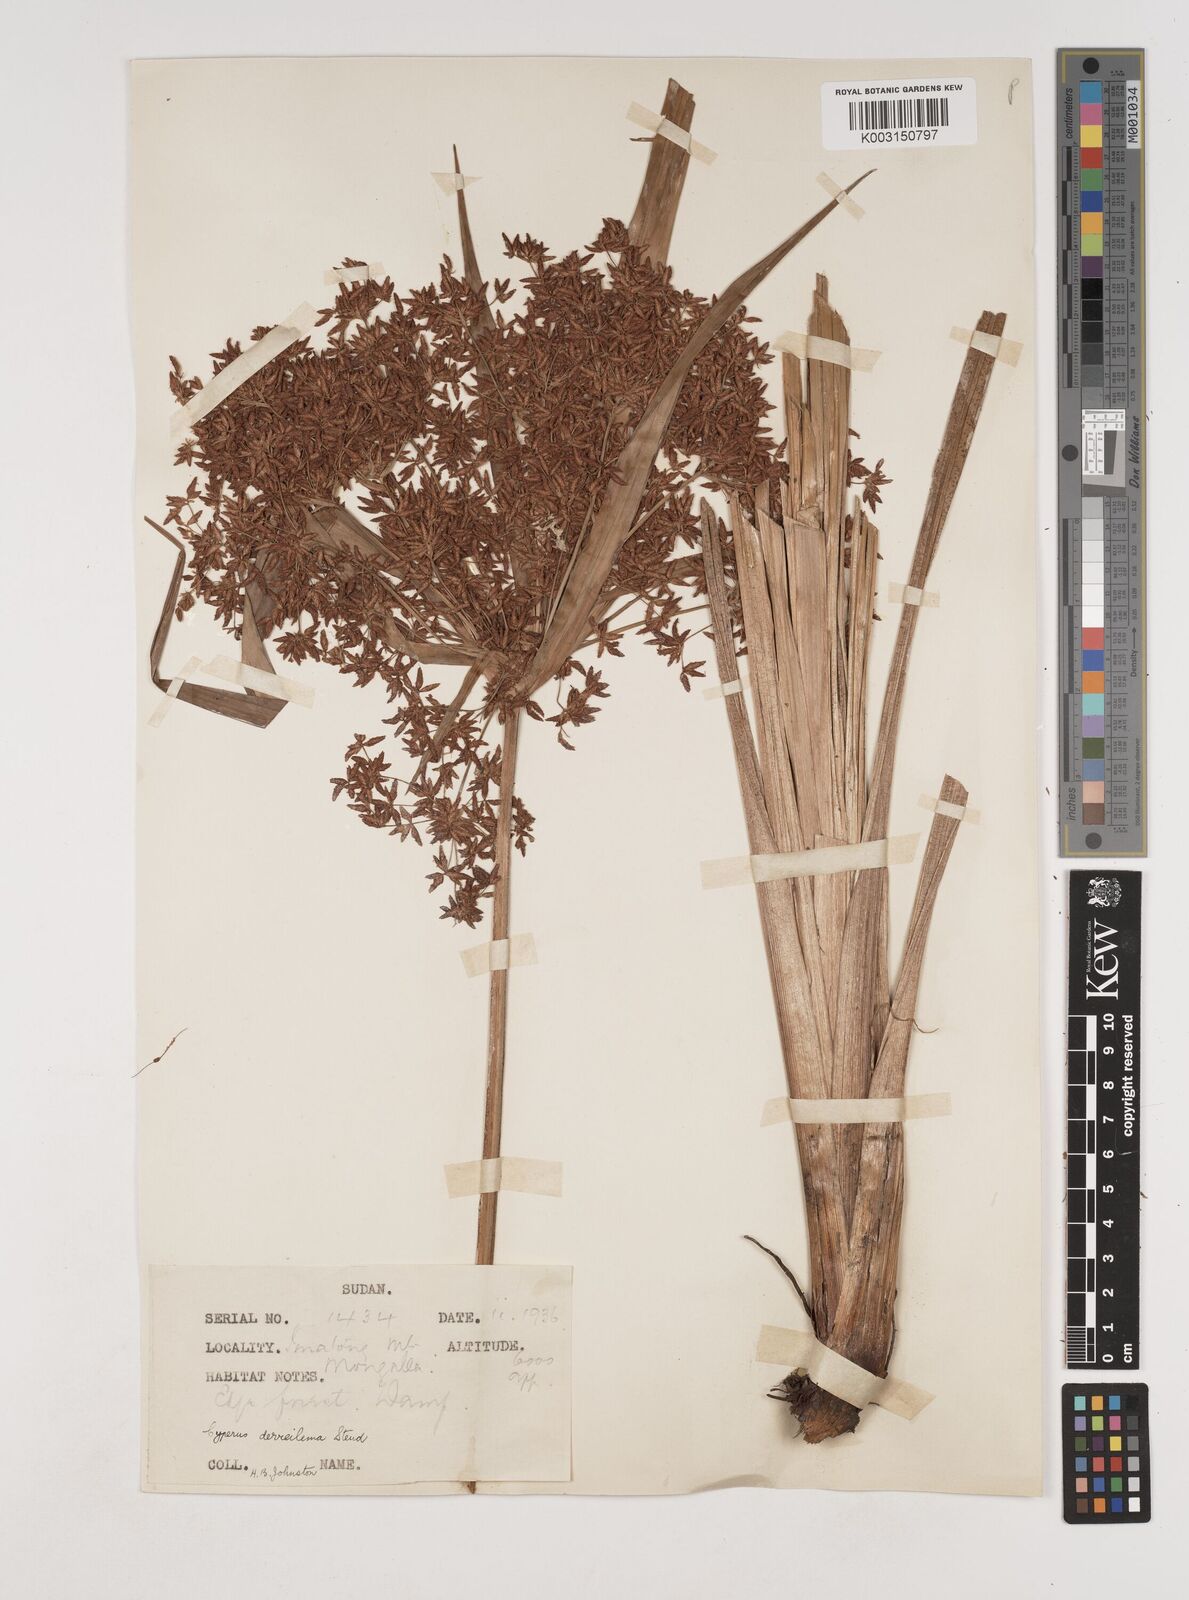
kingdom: Plantae
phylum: Tracheophyta
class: Liliopsida
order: Poales
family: Cyperaceae
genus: Cyperus
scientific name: Cyperus derreilema
